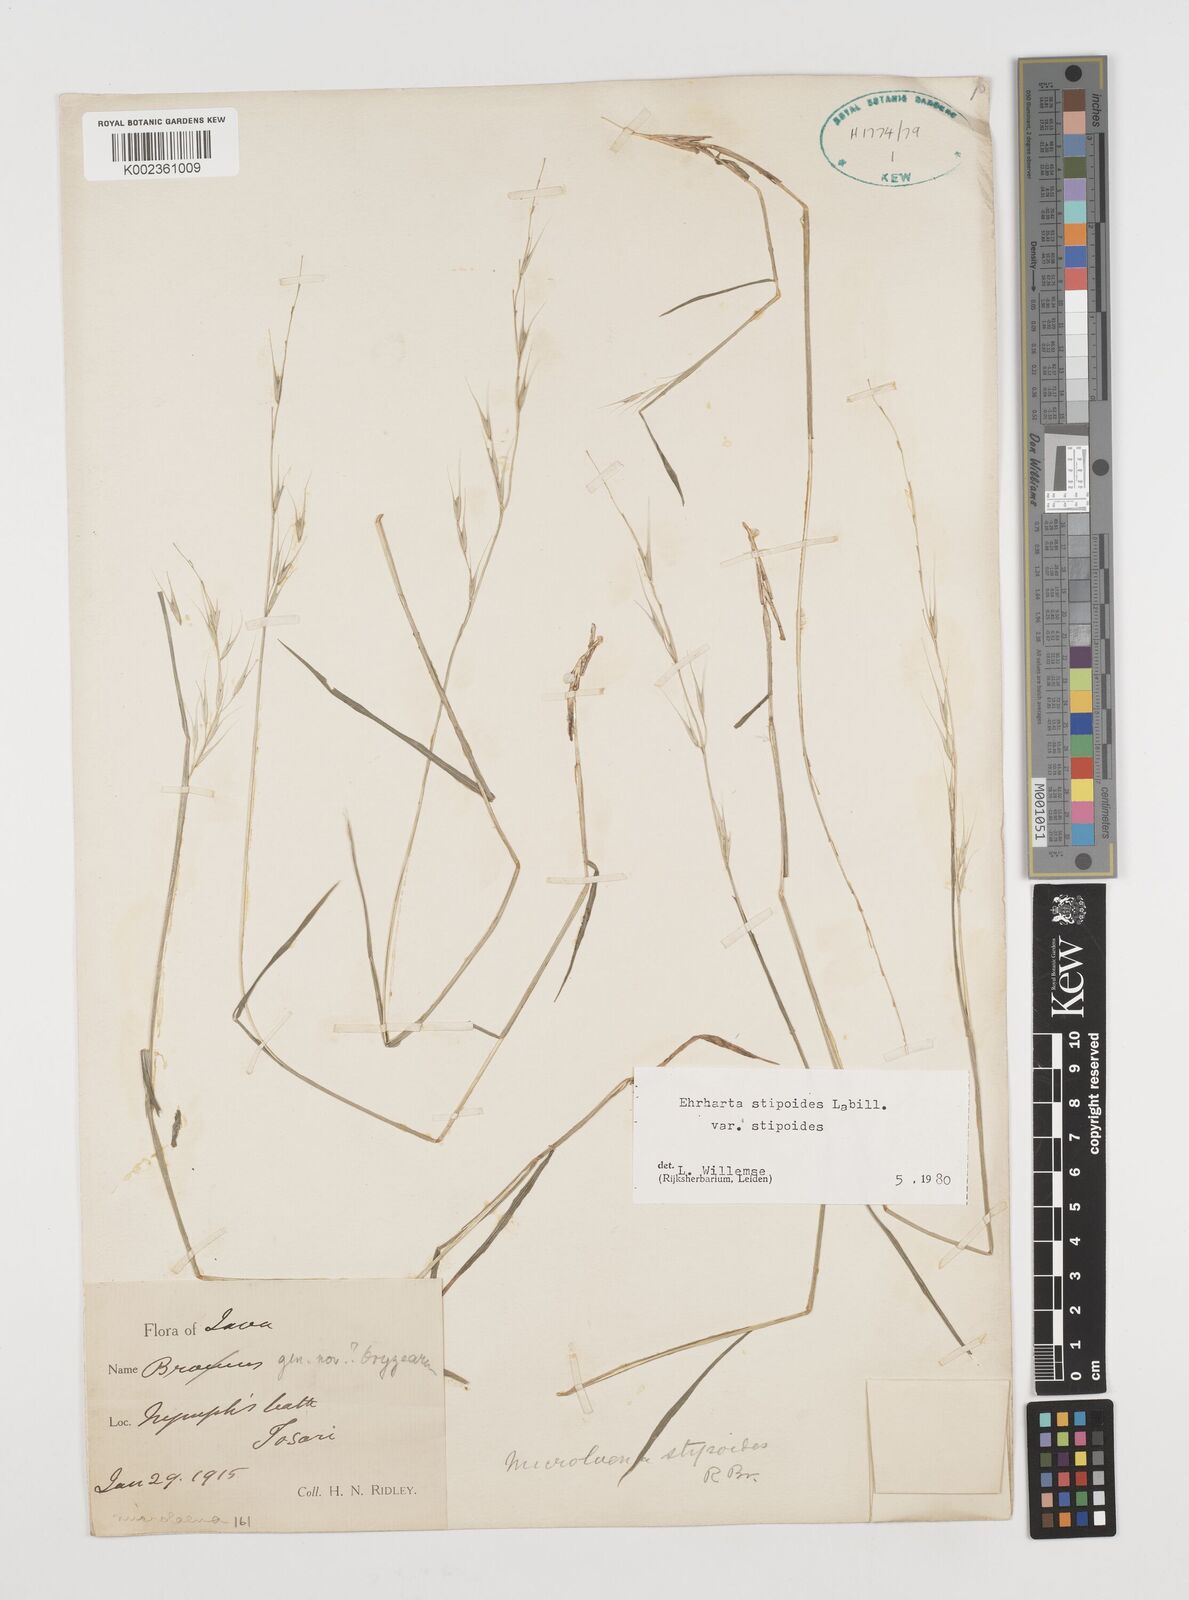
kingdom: Plantae
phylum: Tracheophyta
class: Liliopsida
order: Poales
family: Poaceae
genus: Microlaena
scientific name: Microlaena stipoides
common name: Meadow ricegrass
